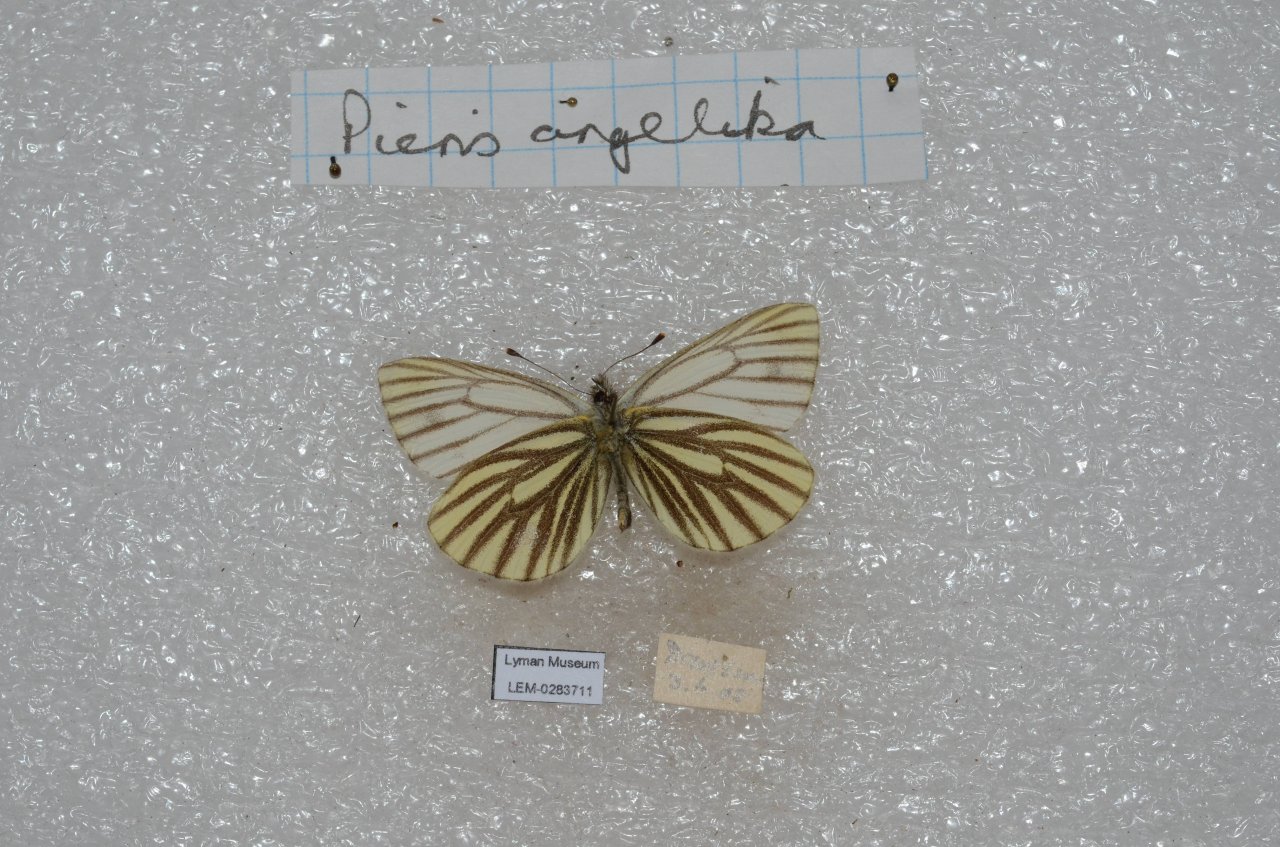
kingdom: Animalia
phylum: Arthropoda
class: Insecta
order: Lepidoptera
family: Pieridae
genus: Pieris
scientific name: Pieris angelika
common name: Arctic White
